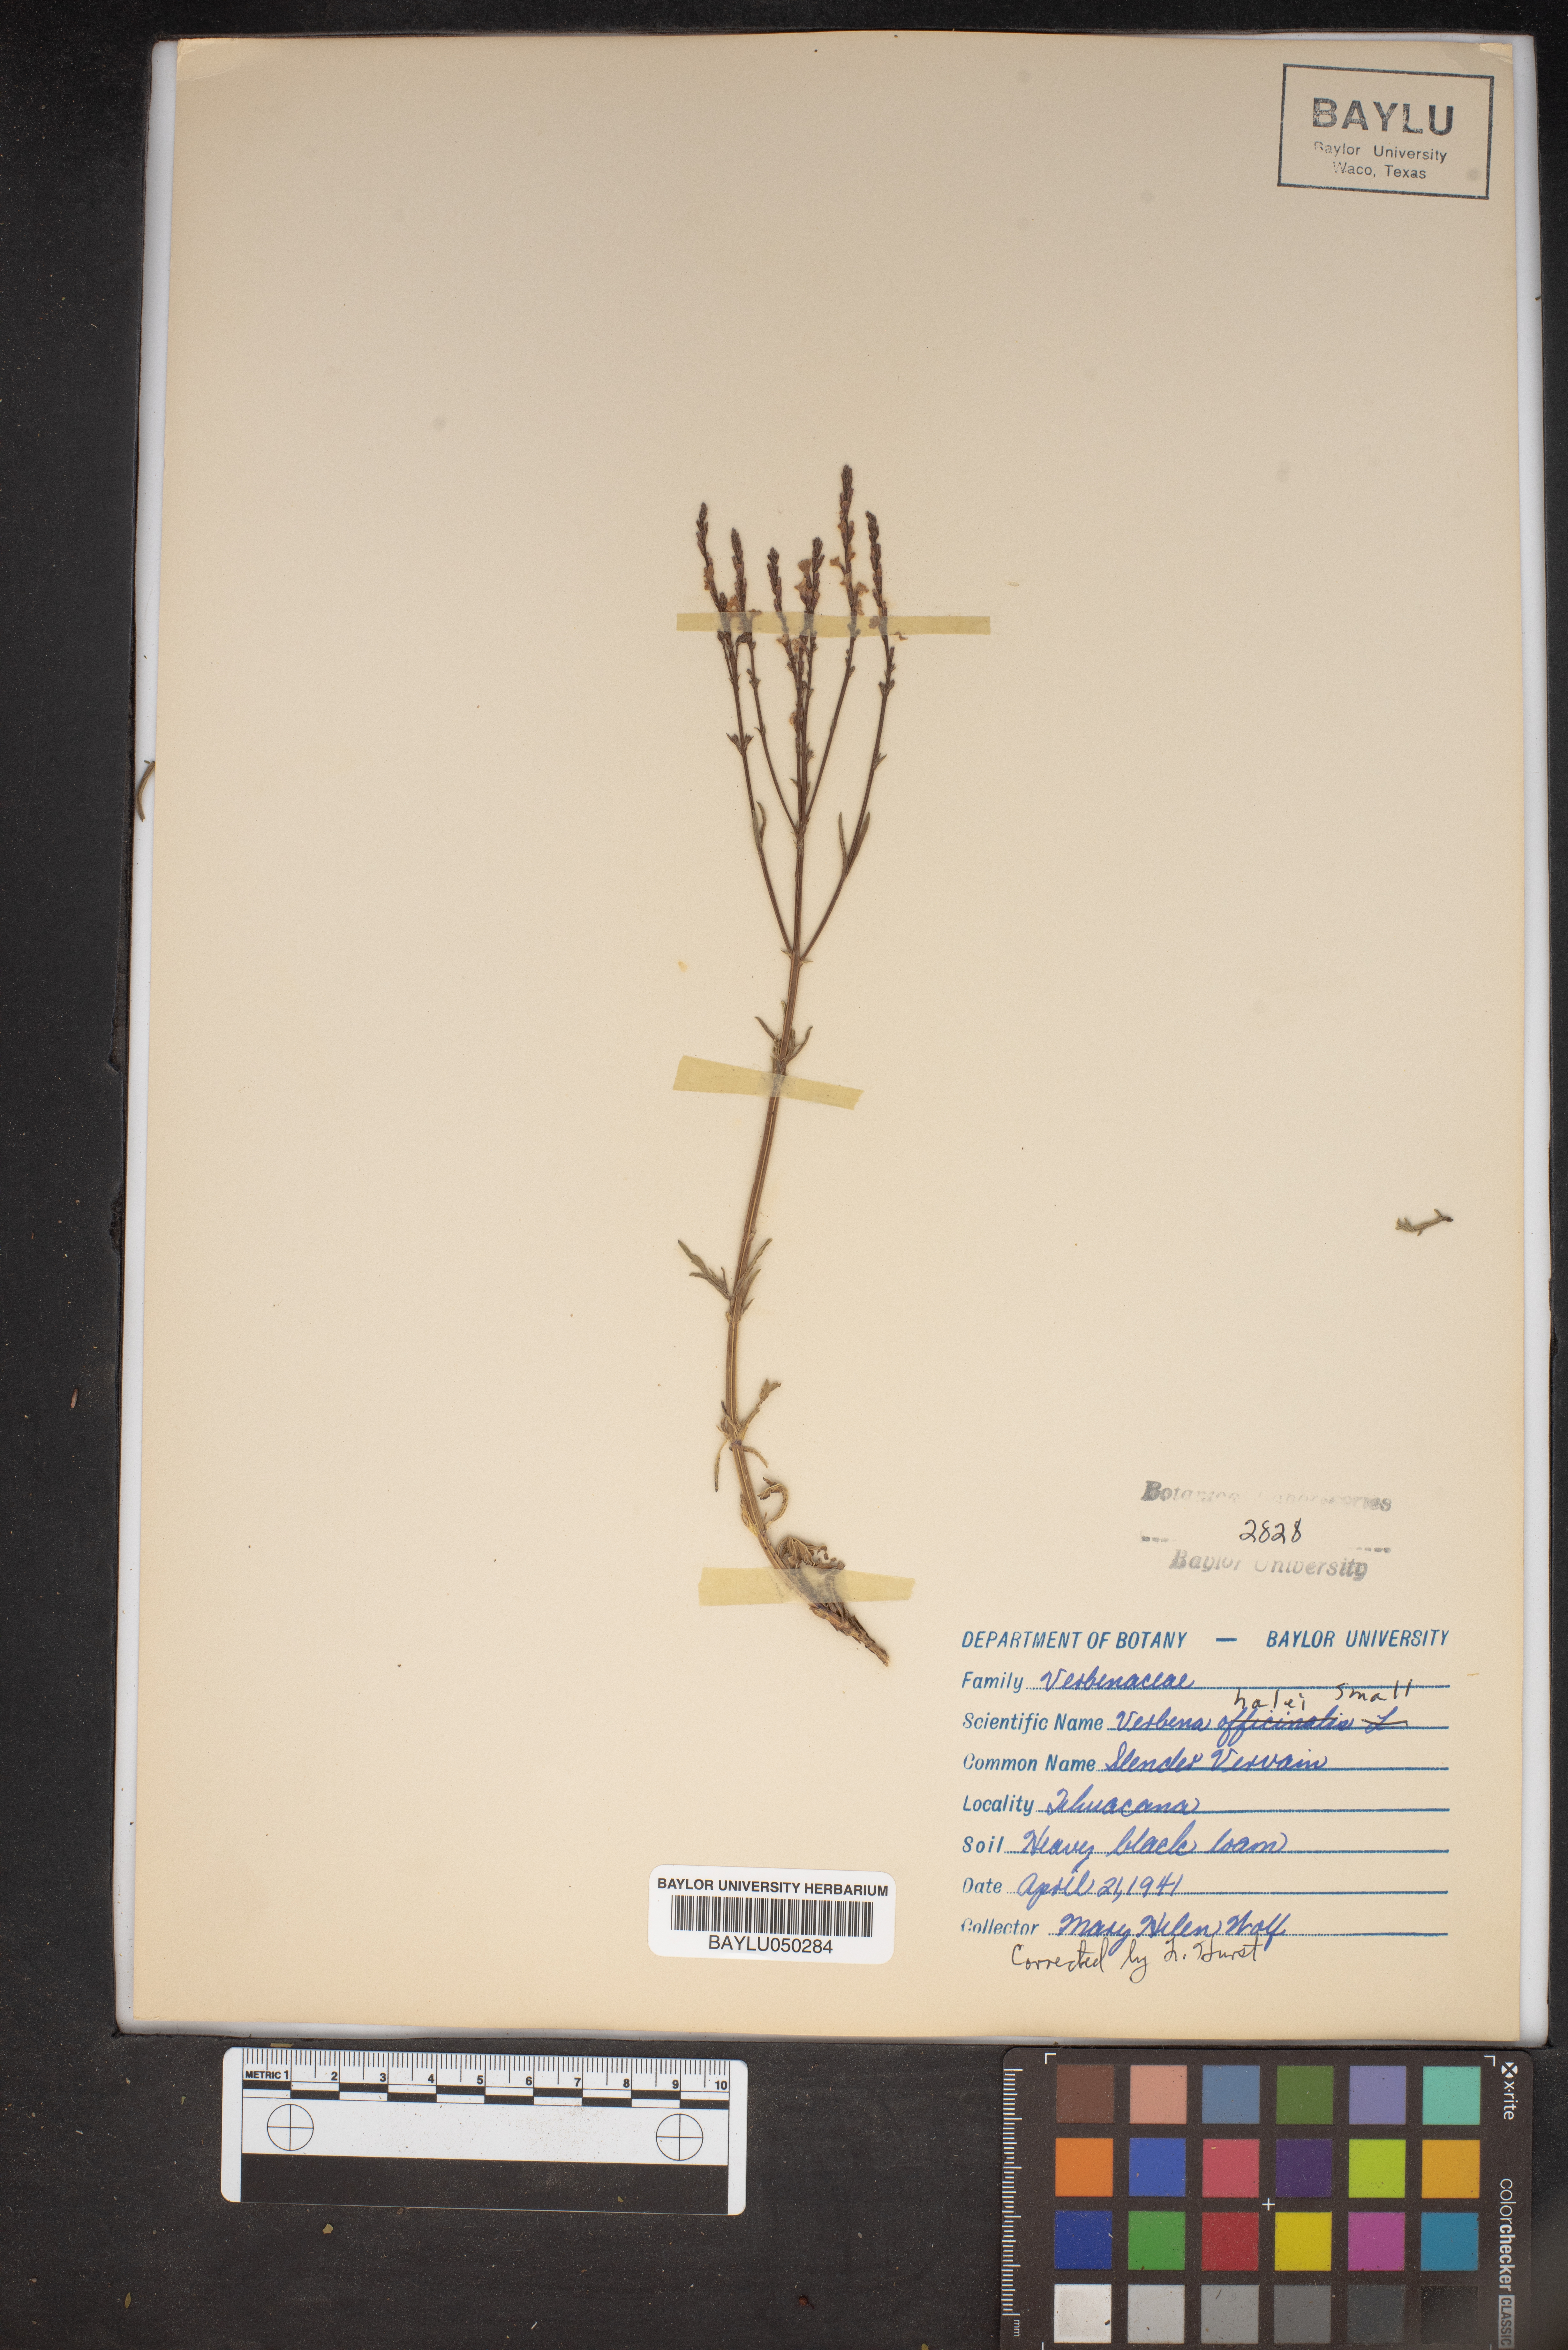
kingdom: Plantae
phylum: Tracheophyta
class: Magnoliopsida
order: Lamiales
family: Verbenaceae
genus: Verbena
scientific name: Verbena halei
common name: Texas vervain
